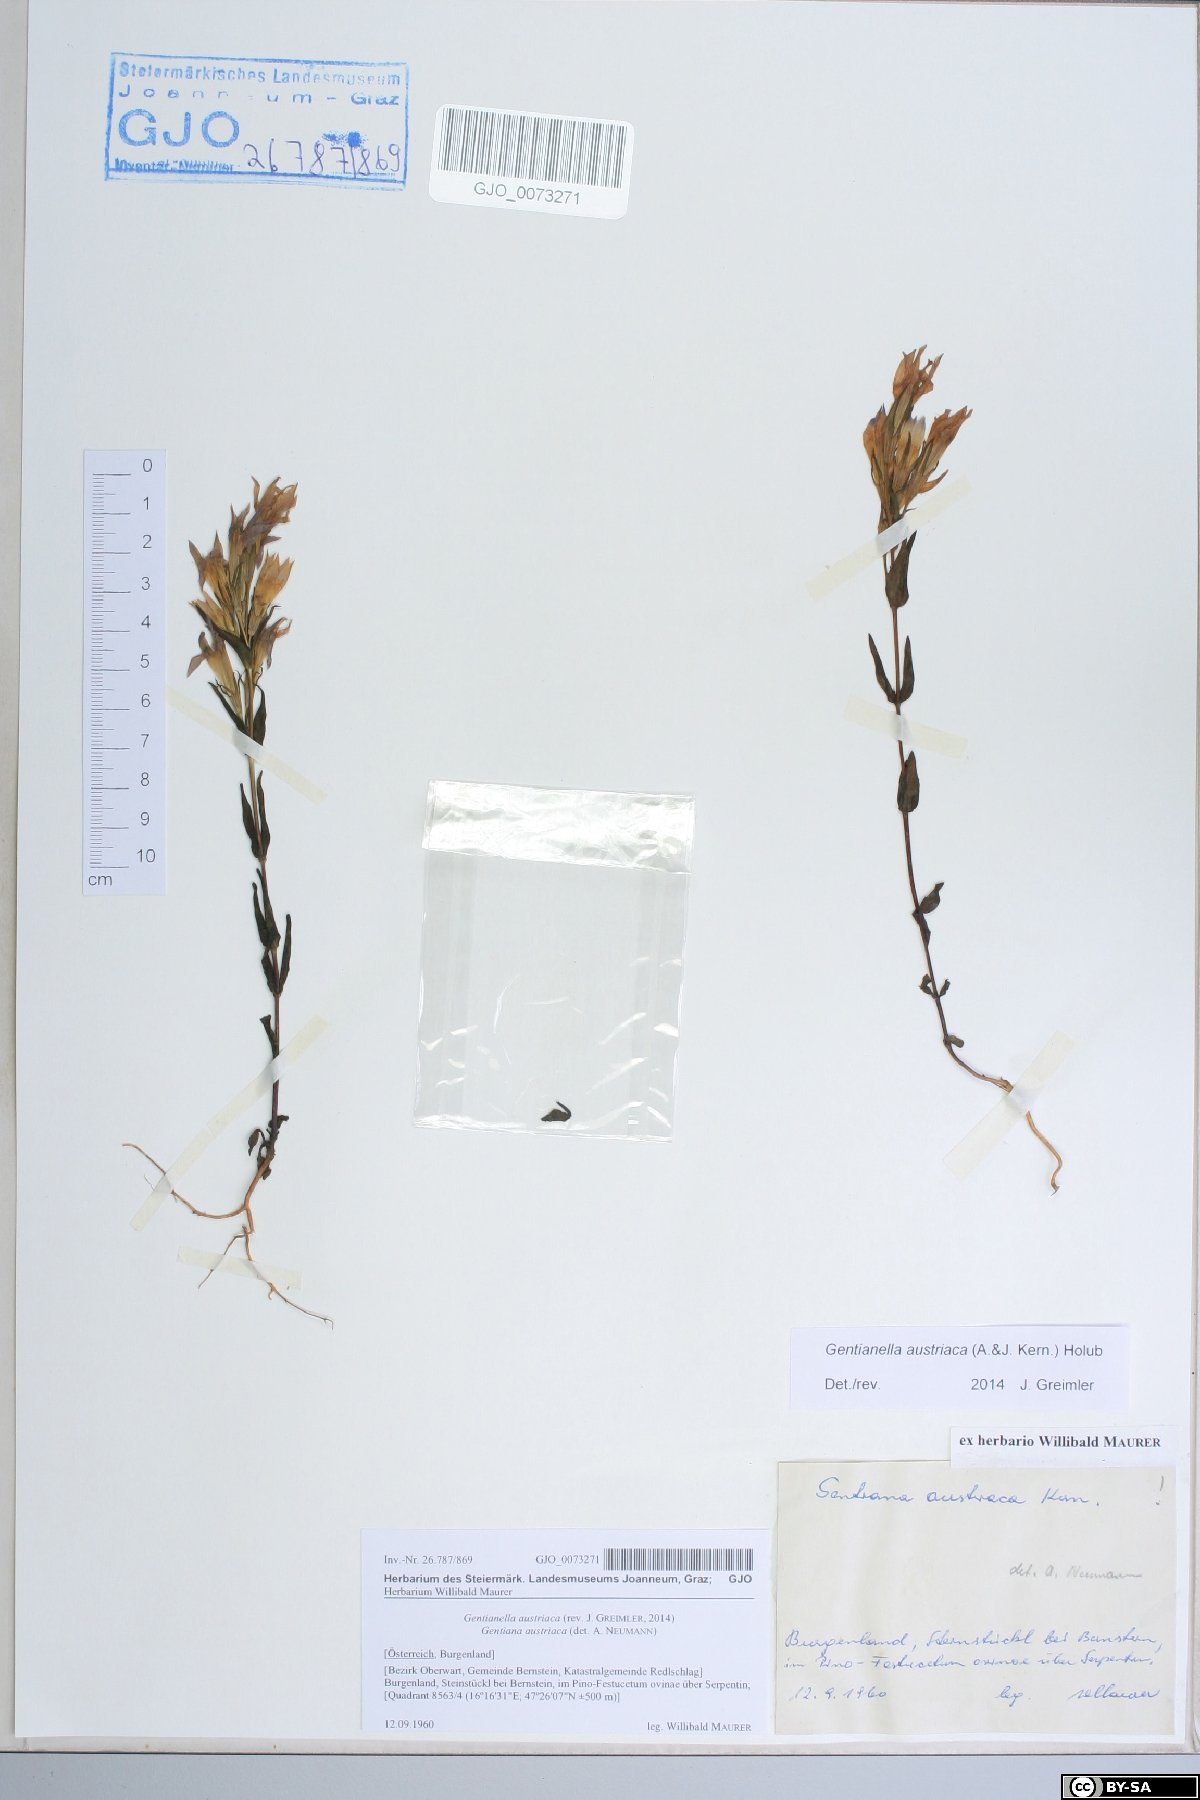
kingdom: Plantae
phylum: Tracheophyta
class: Magnoliopsida
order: Gentianales
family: Gentianaceae
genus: Gentianella
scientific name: Gentianella austriaca
